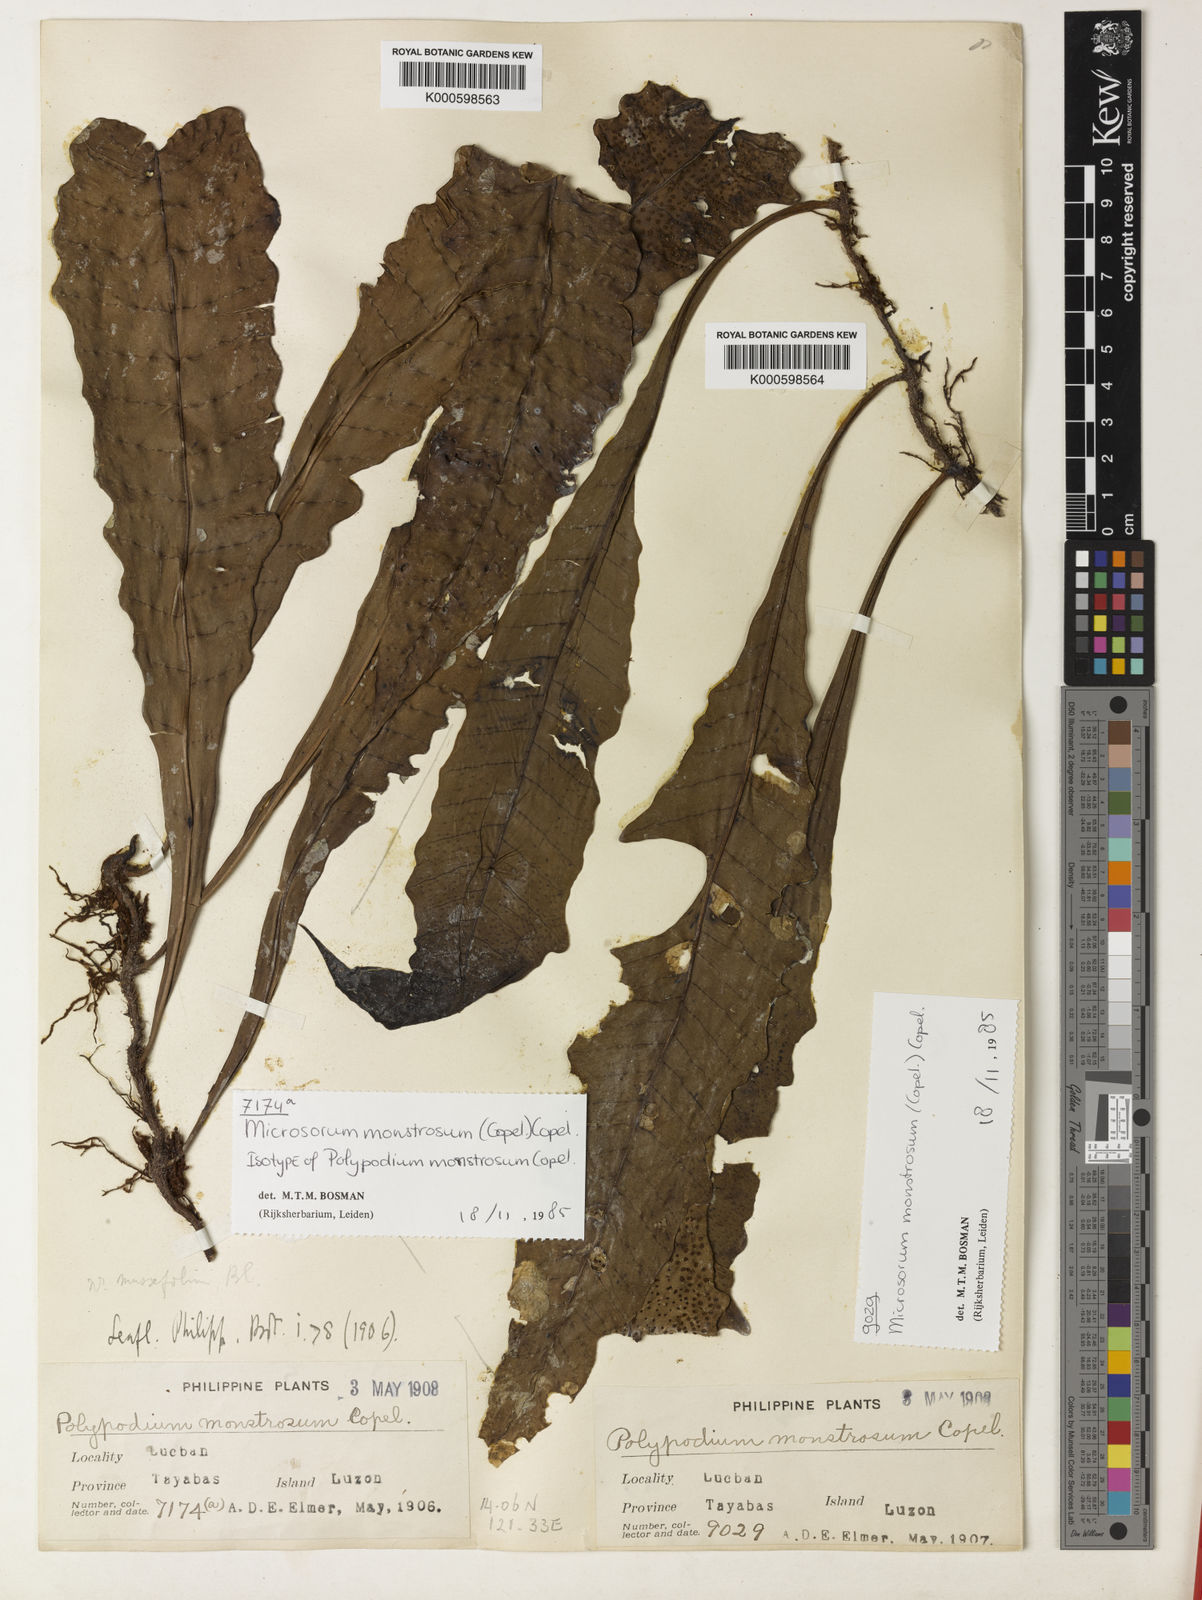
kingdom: Plantae
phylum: Tracheophyta
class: Polypodiopsida
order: Polypodiales
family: Polypodiaceae
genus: Microsorum
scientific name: Microsorum monstrosum
